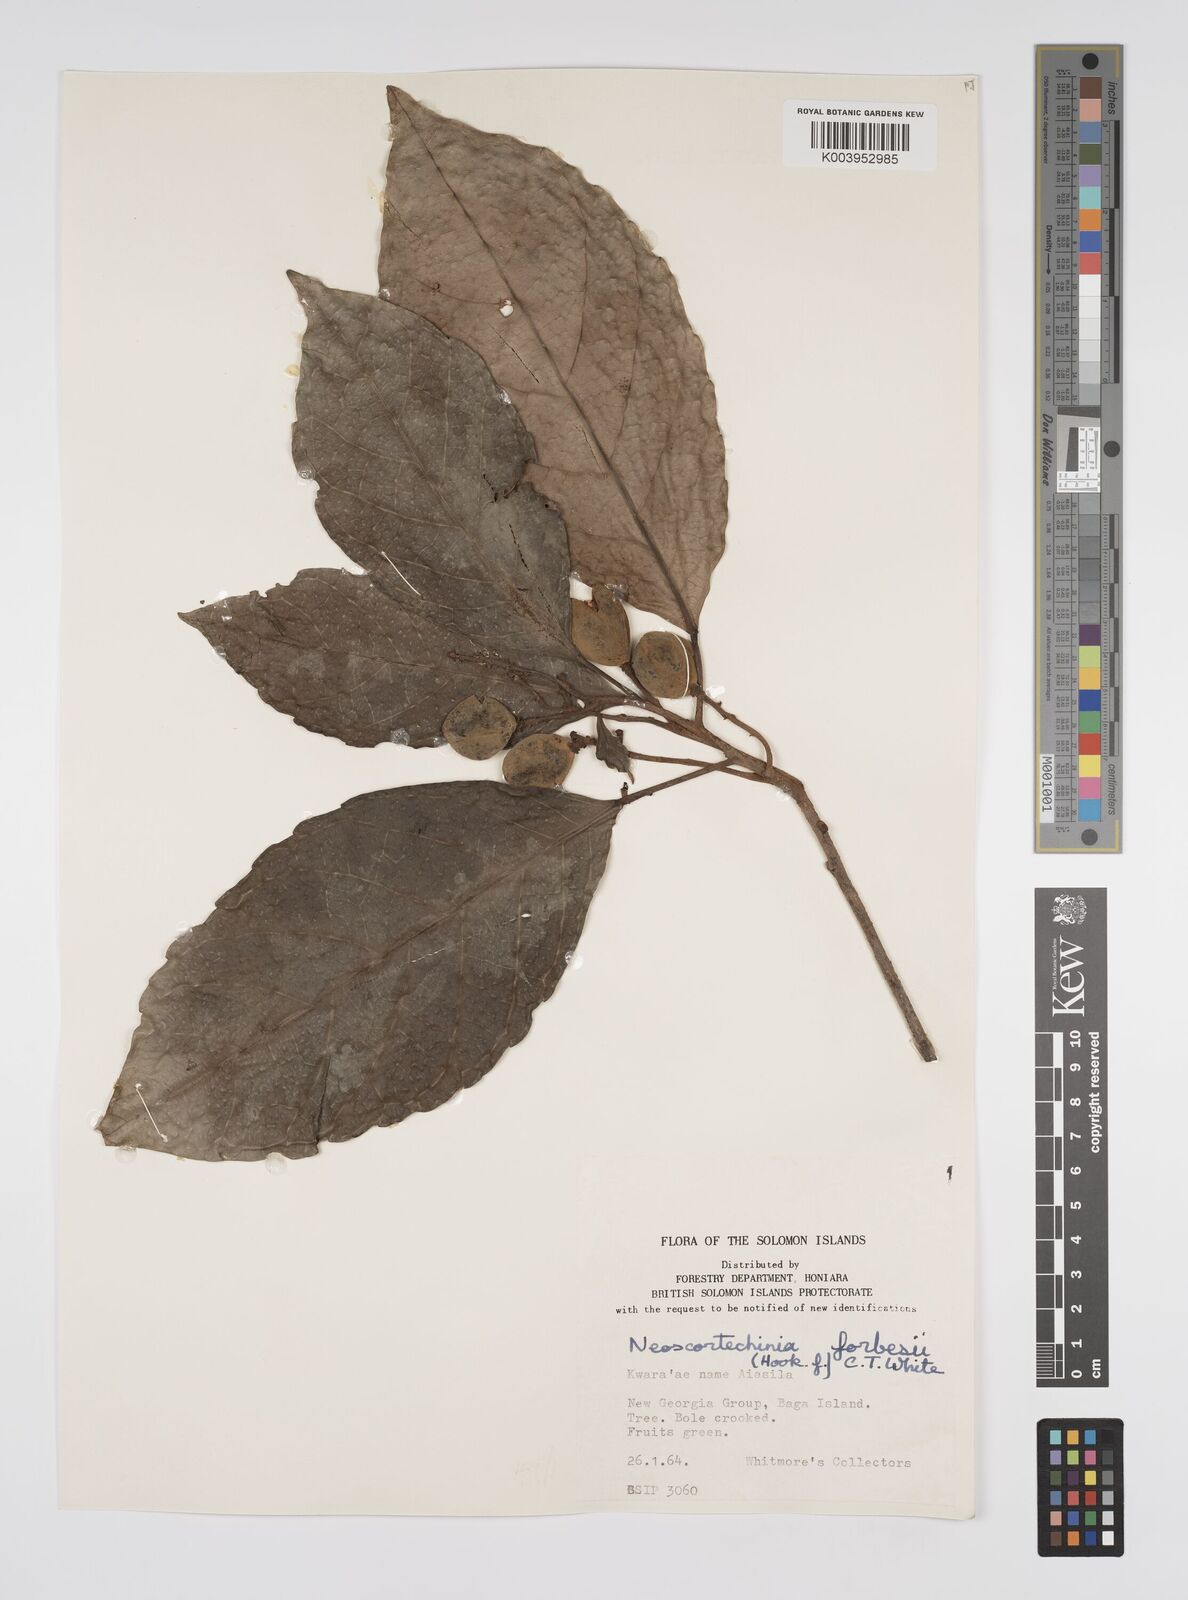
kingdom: Plantae
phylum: Tracheophyta
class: Magnoliopsida
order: Malpighiales
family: Euphorbiaceae
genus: Neoscortechinia
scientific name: Neoscortechinia forbesii
